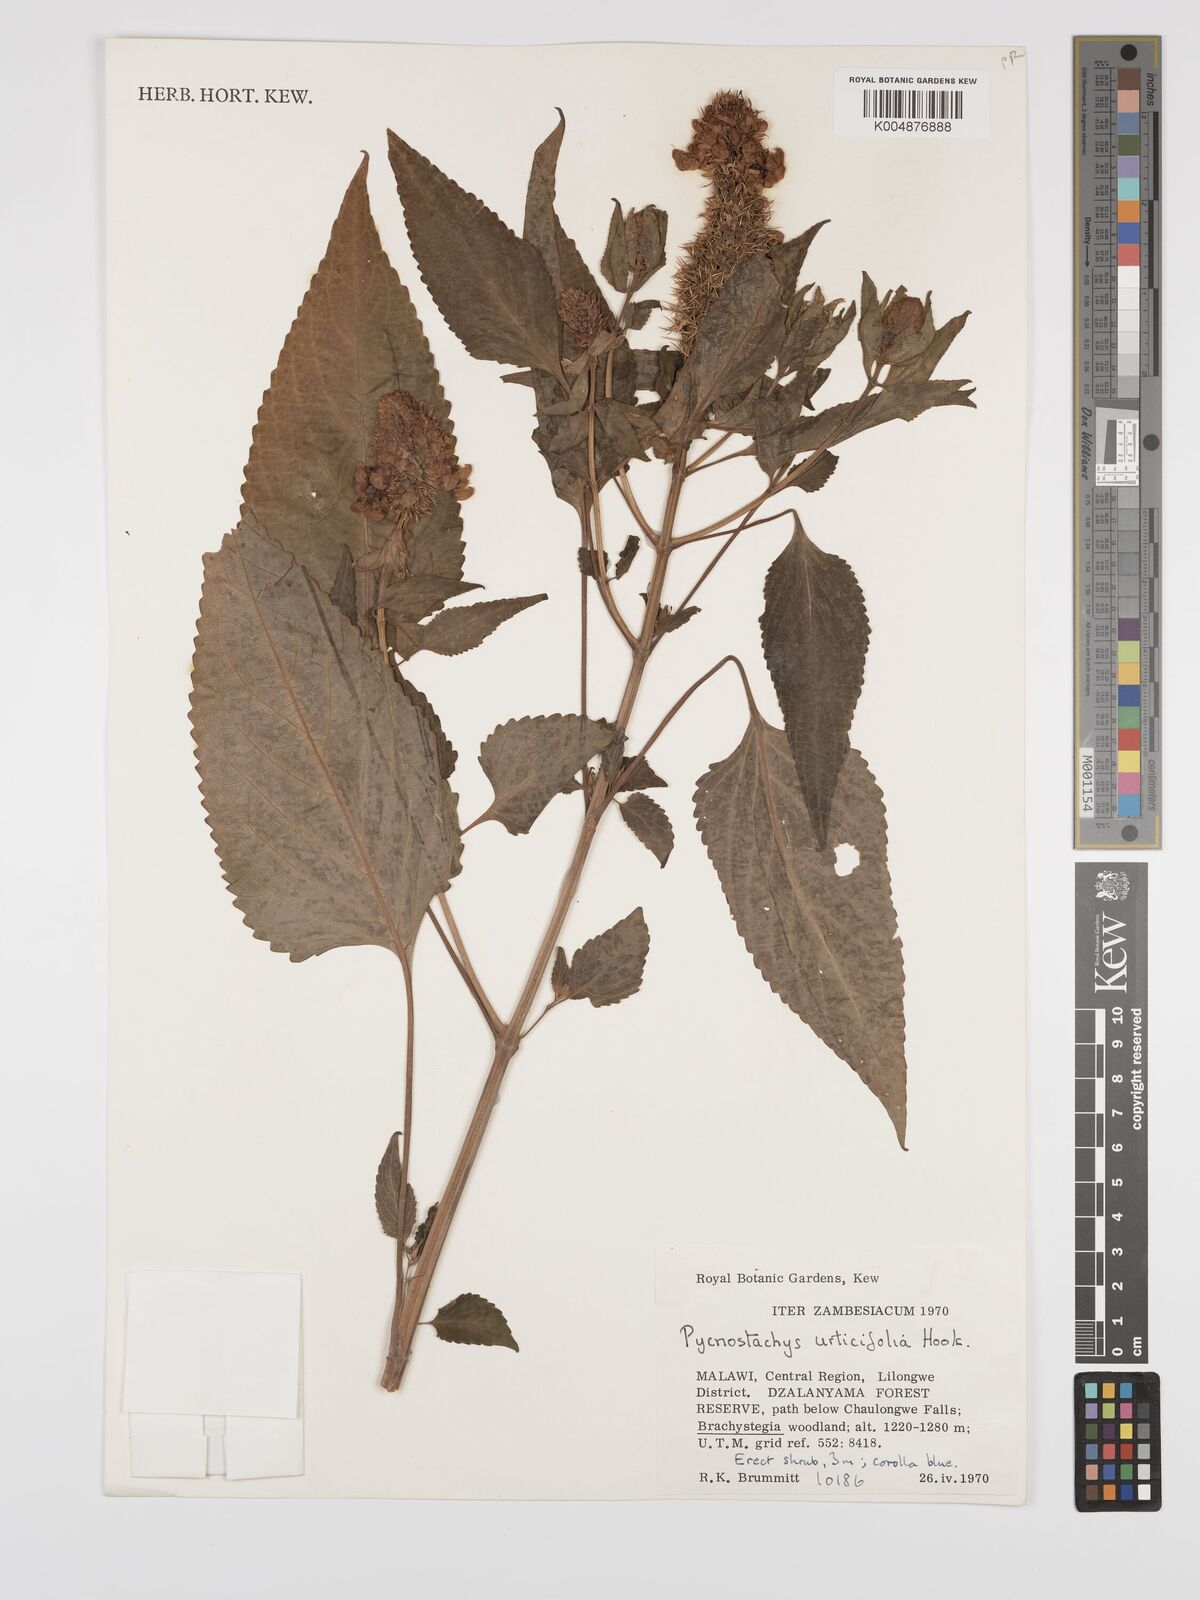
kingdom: Plantae
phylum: Tracheophyta
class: Magnoliopsida
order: Lamiales
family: Lamiaceae
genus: Coleus
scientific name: Coleus
